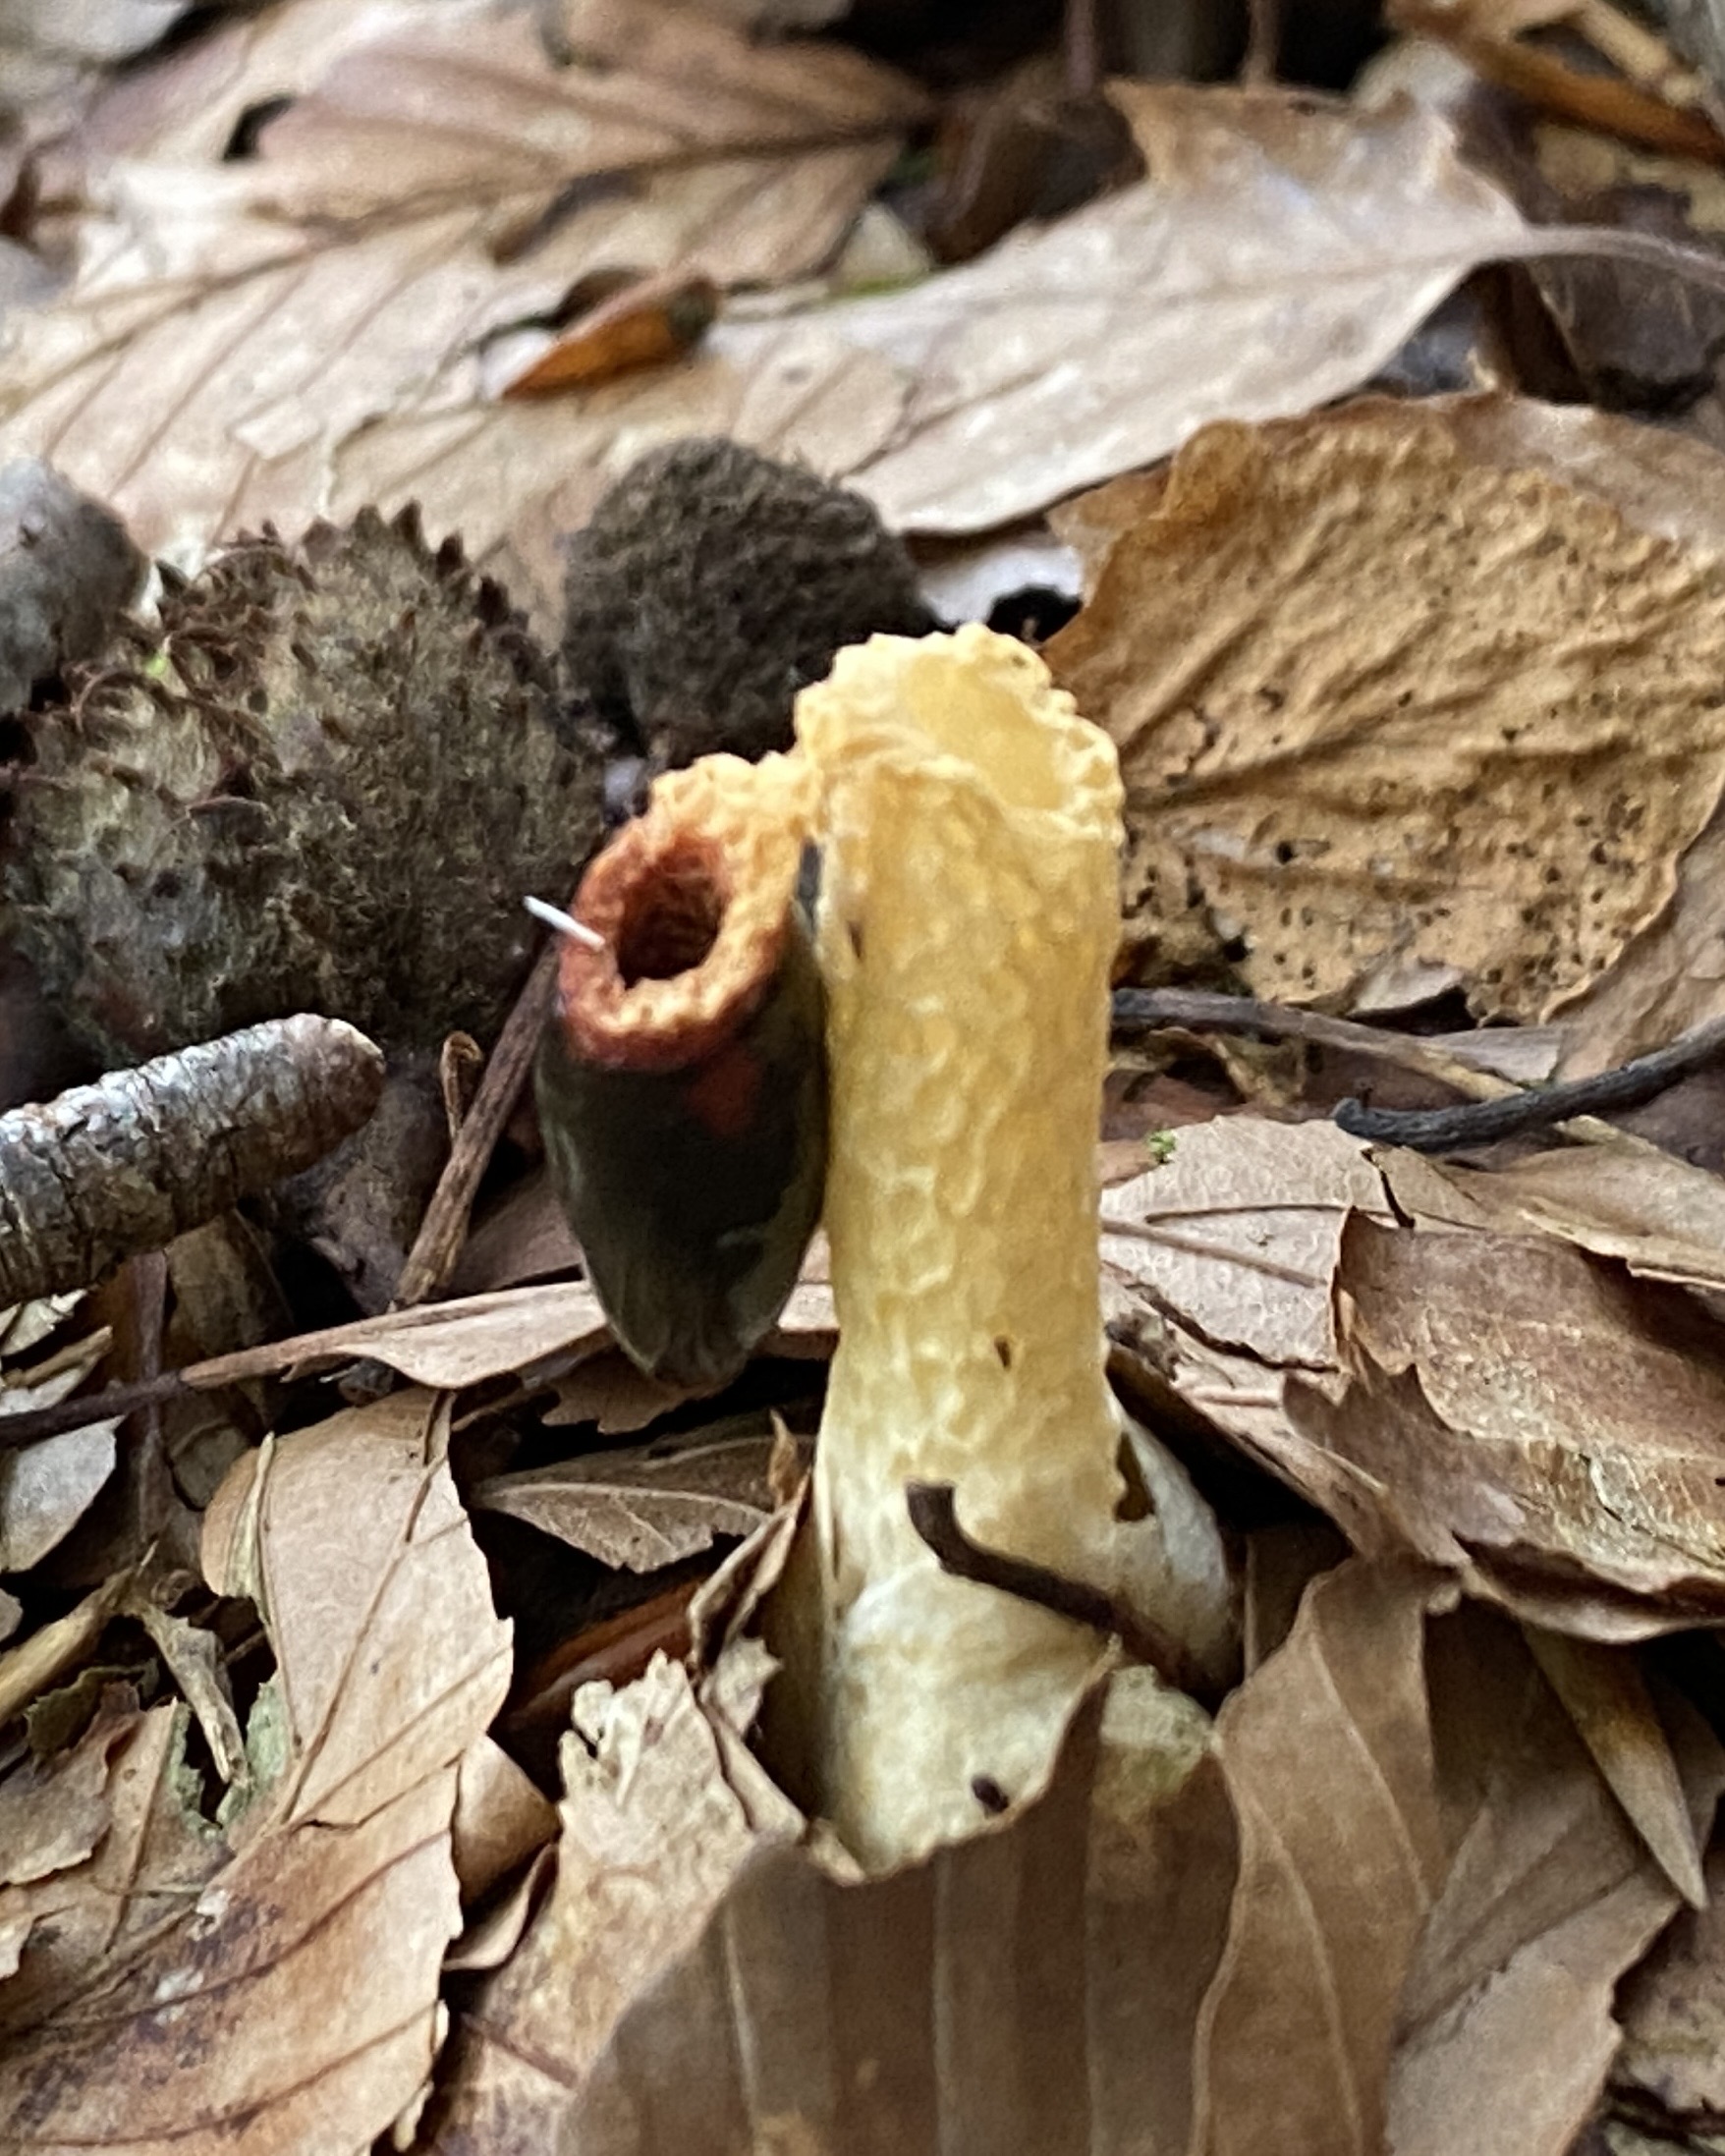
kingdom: Fungi
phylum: Basidiomycota
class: Agaricomycetes
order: Phallales
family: Phallaceae
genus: Mutinus
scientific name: Mutinus caninus
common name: hunde-stinksvamp
